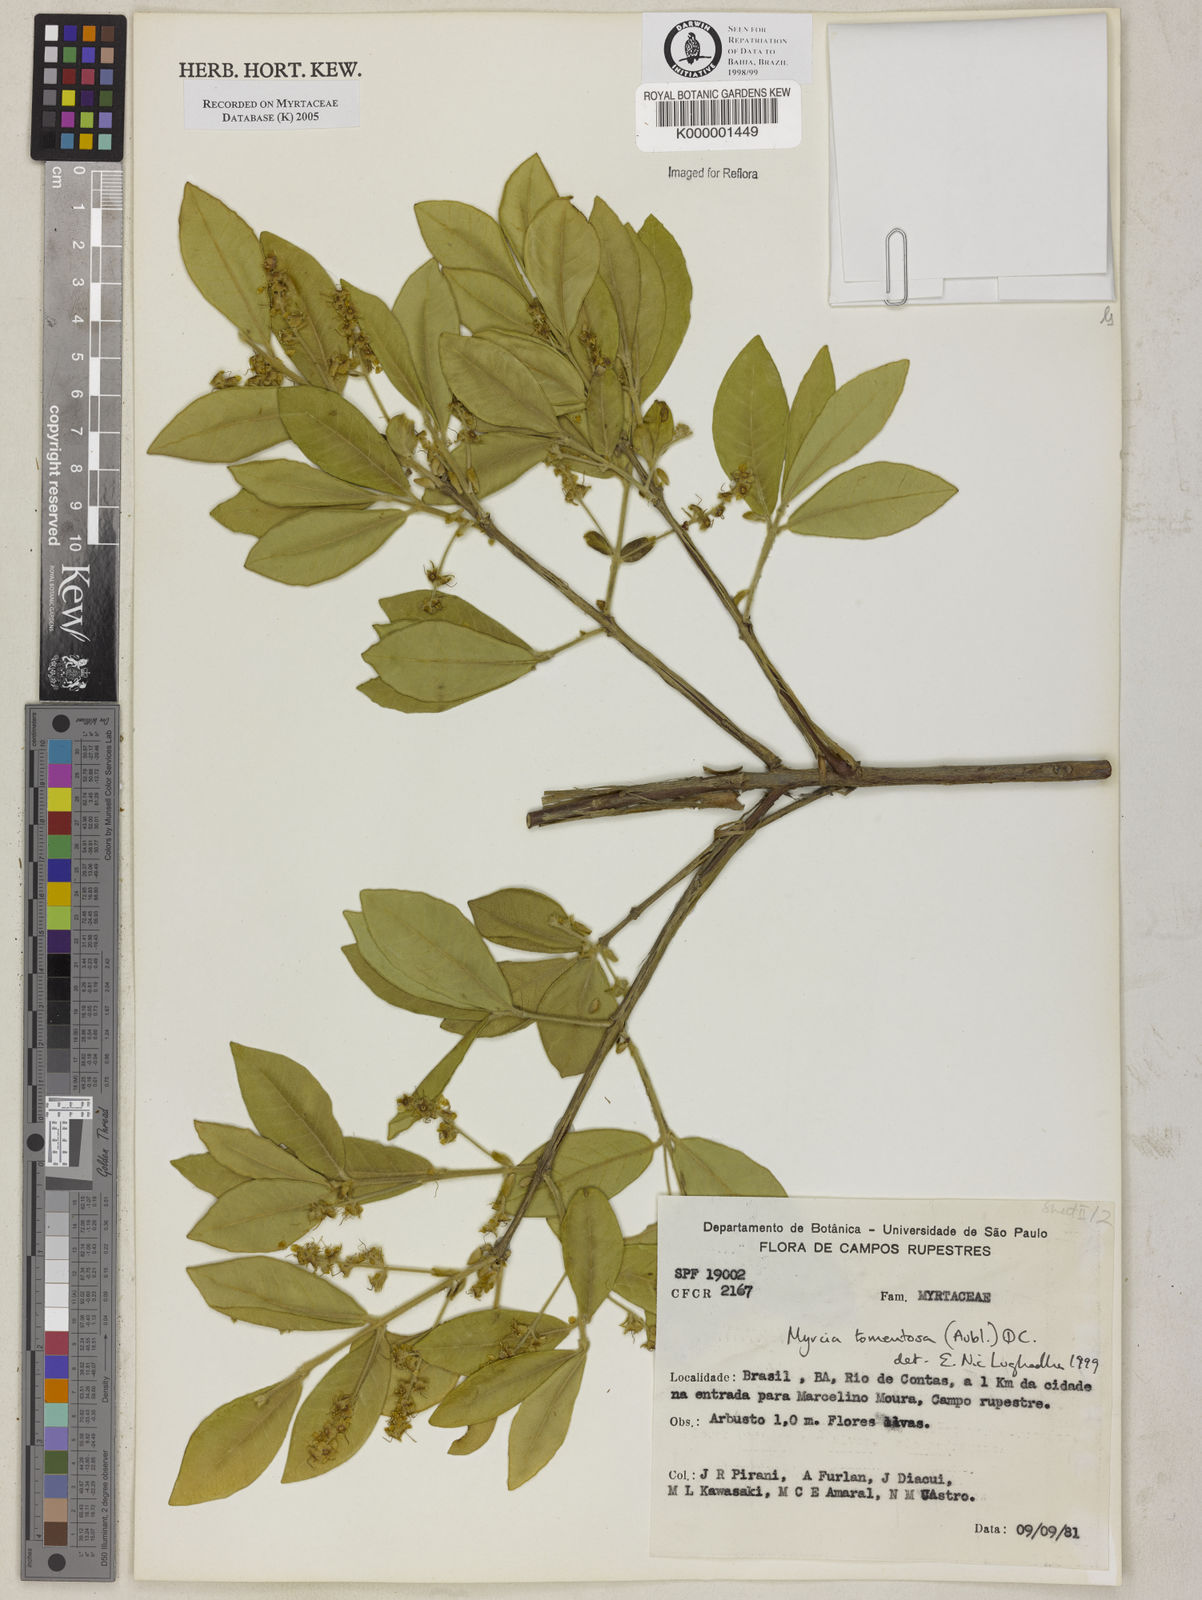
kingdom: Plantae
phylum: Tracheophyta
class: Magnoliopsida
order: Myrtales
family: Myrtaceae
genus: Myrcia
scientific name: Myrcia tomentosa
